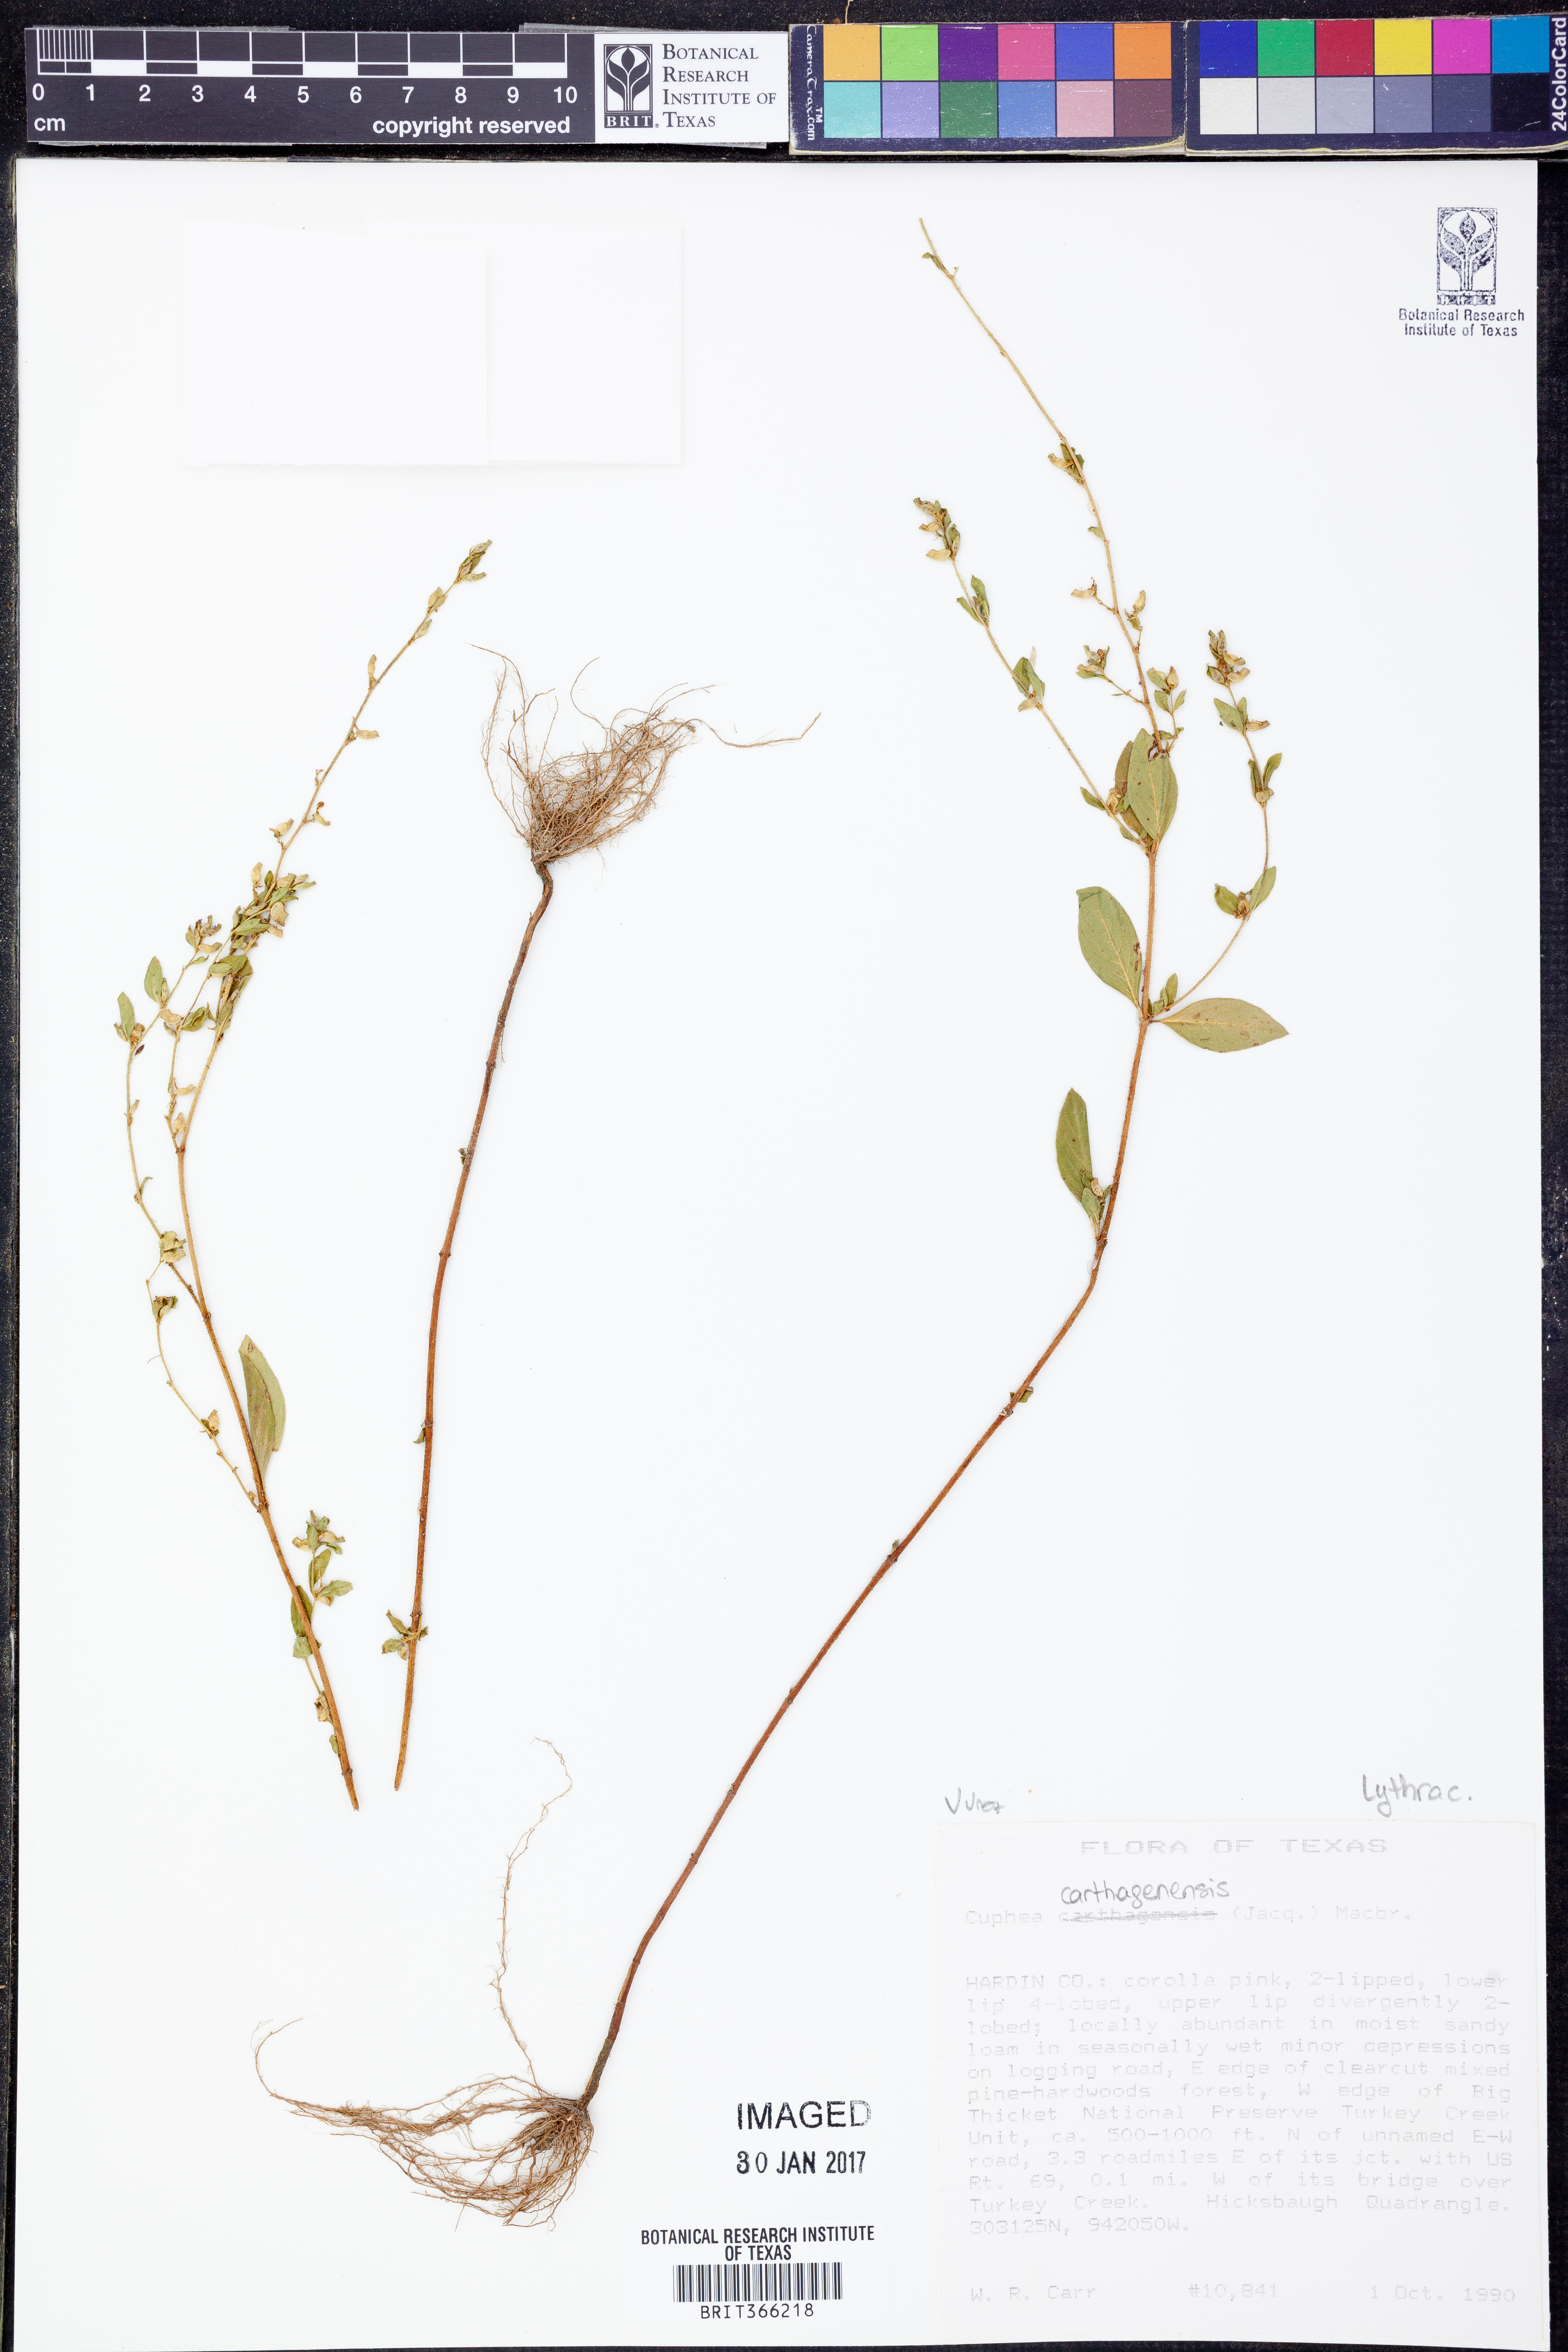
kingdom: Plantae
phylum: Tracheophyta
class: Magnoliopsida
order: Myrtales
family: Lythraceae
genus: Cuphea
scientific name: Cuphea carthagenensis
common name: Colombian waxweed
